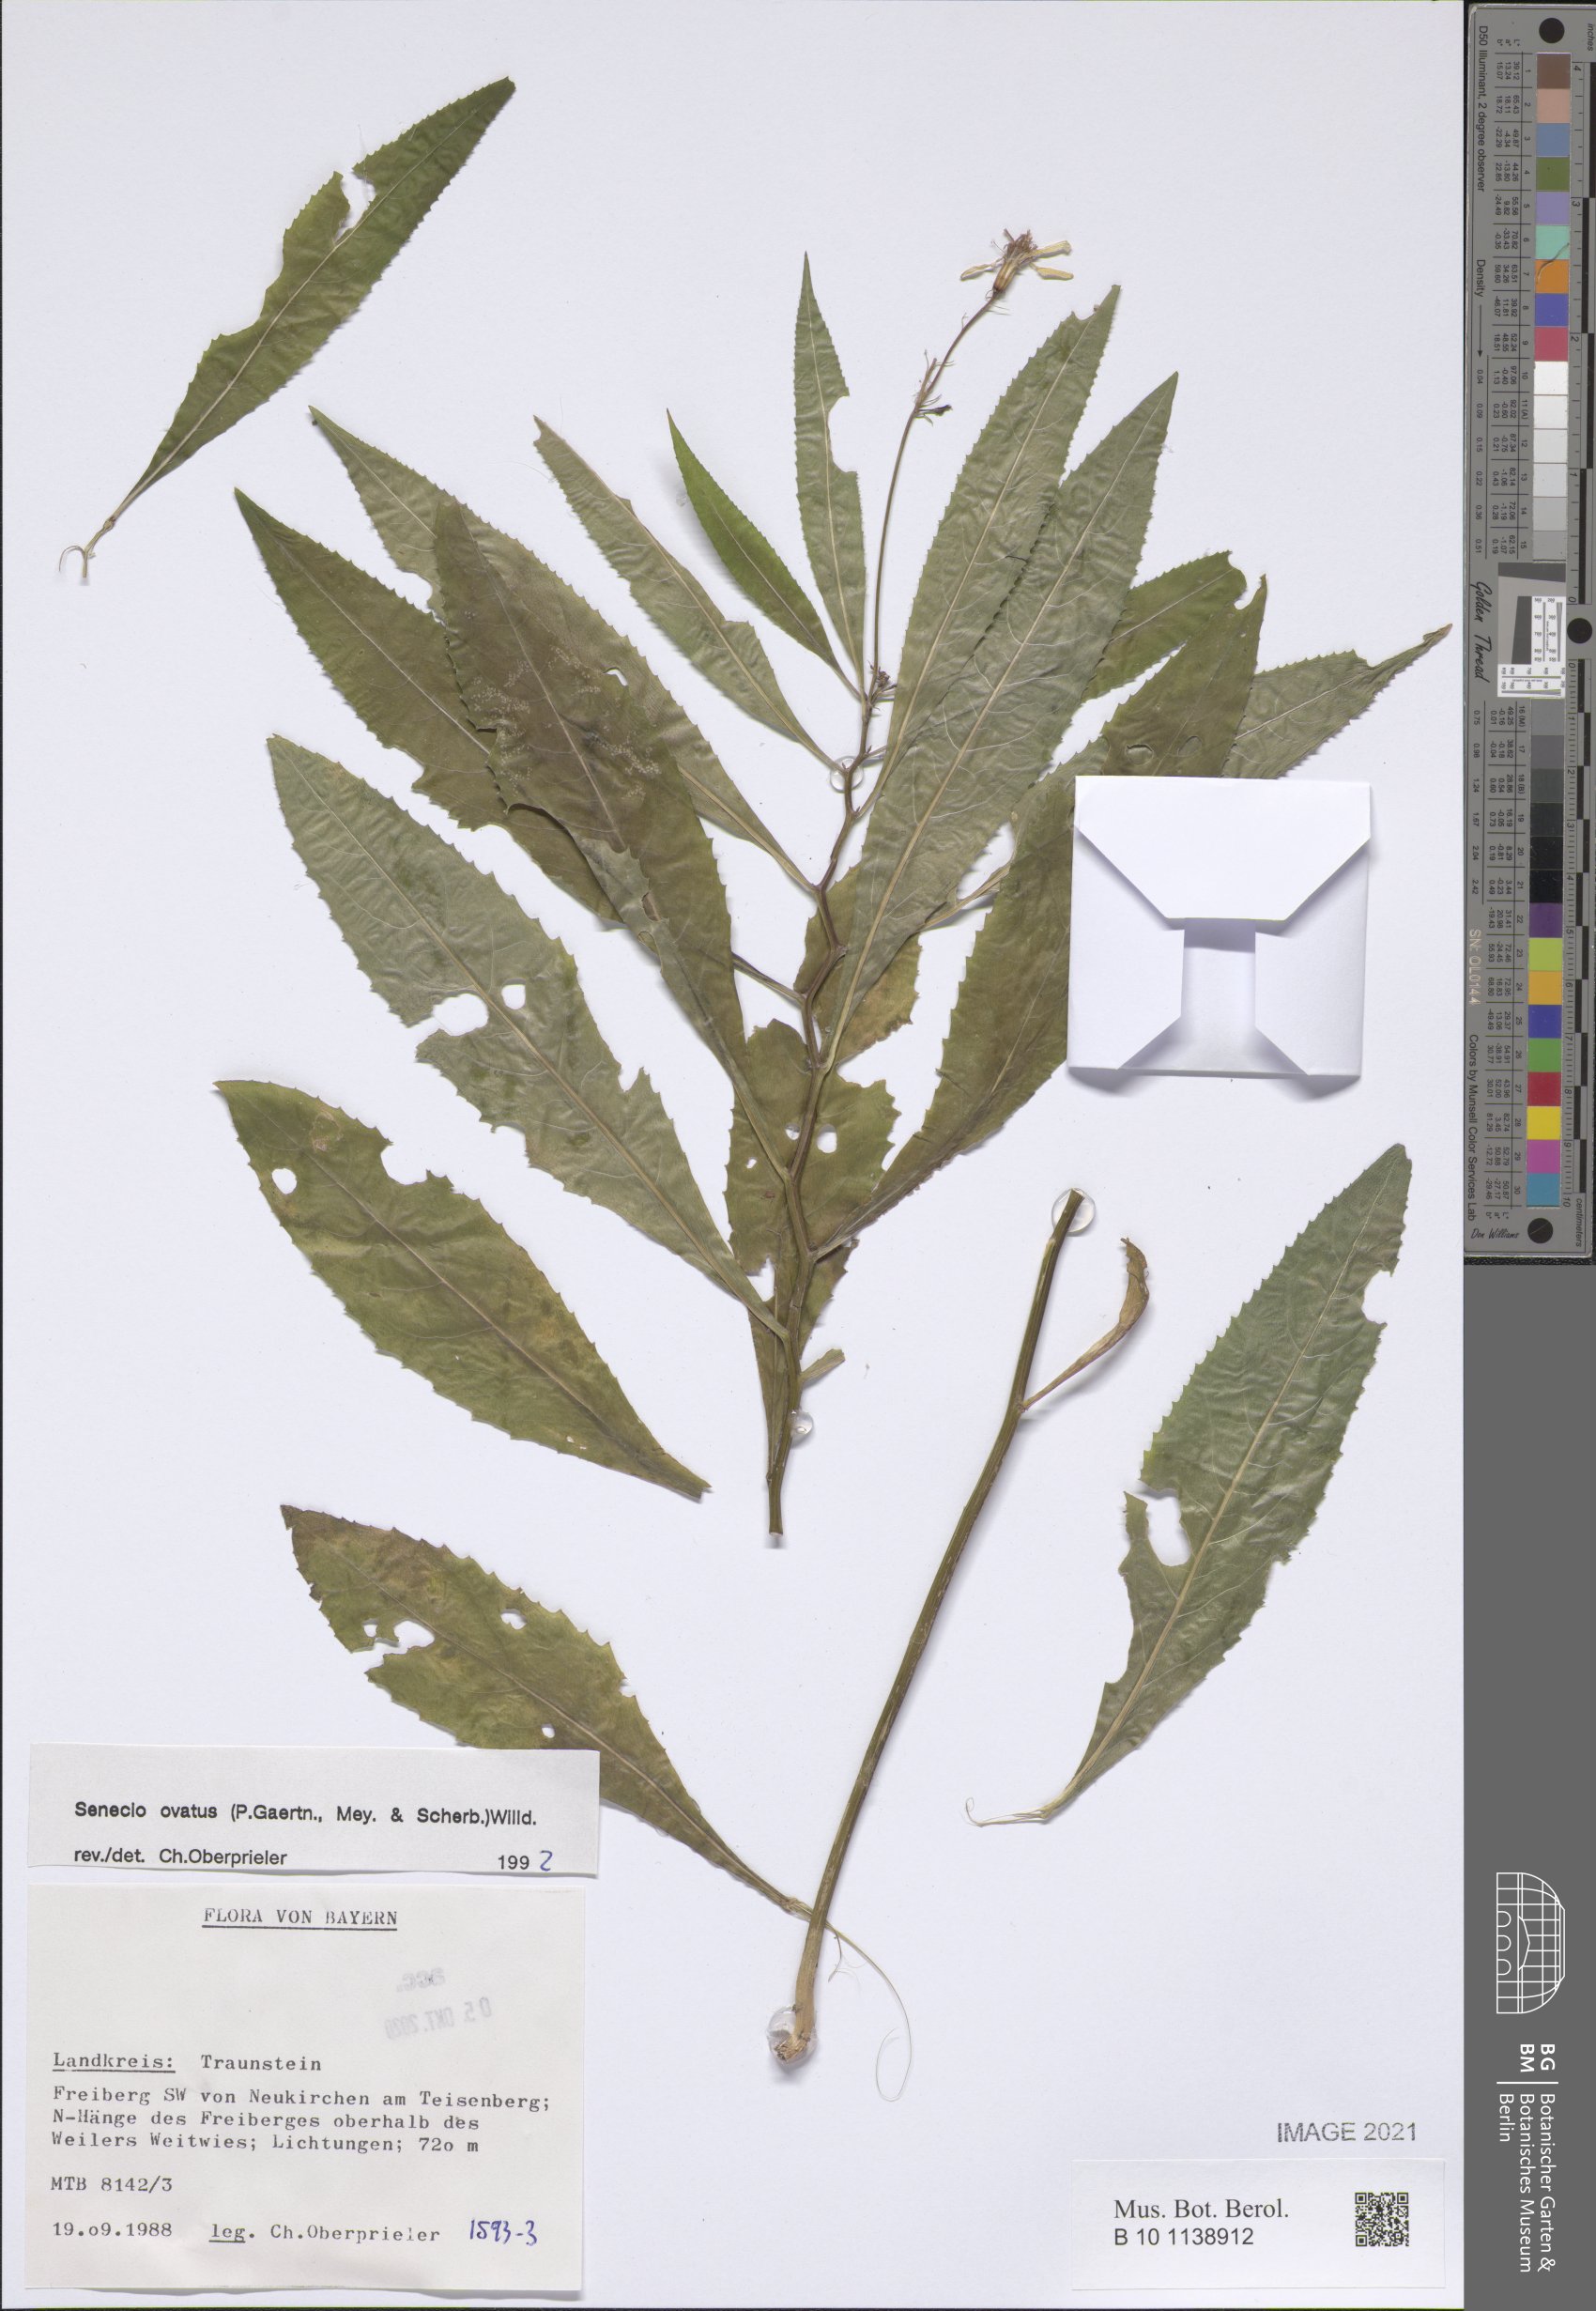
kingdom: Plantae
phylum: Tracheophyta
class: Magnoliopsida
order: Asterales
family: Asteraceae
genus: Senecio
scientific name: Senecio ovatus
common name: Wood ragwort
